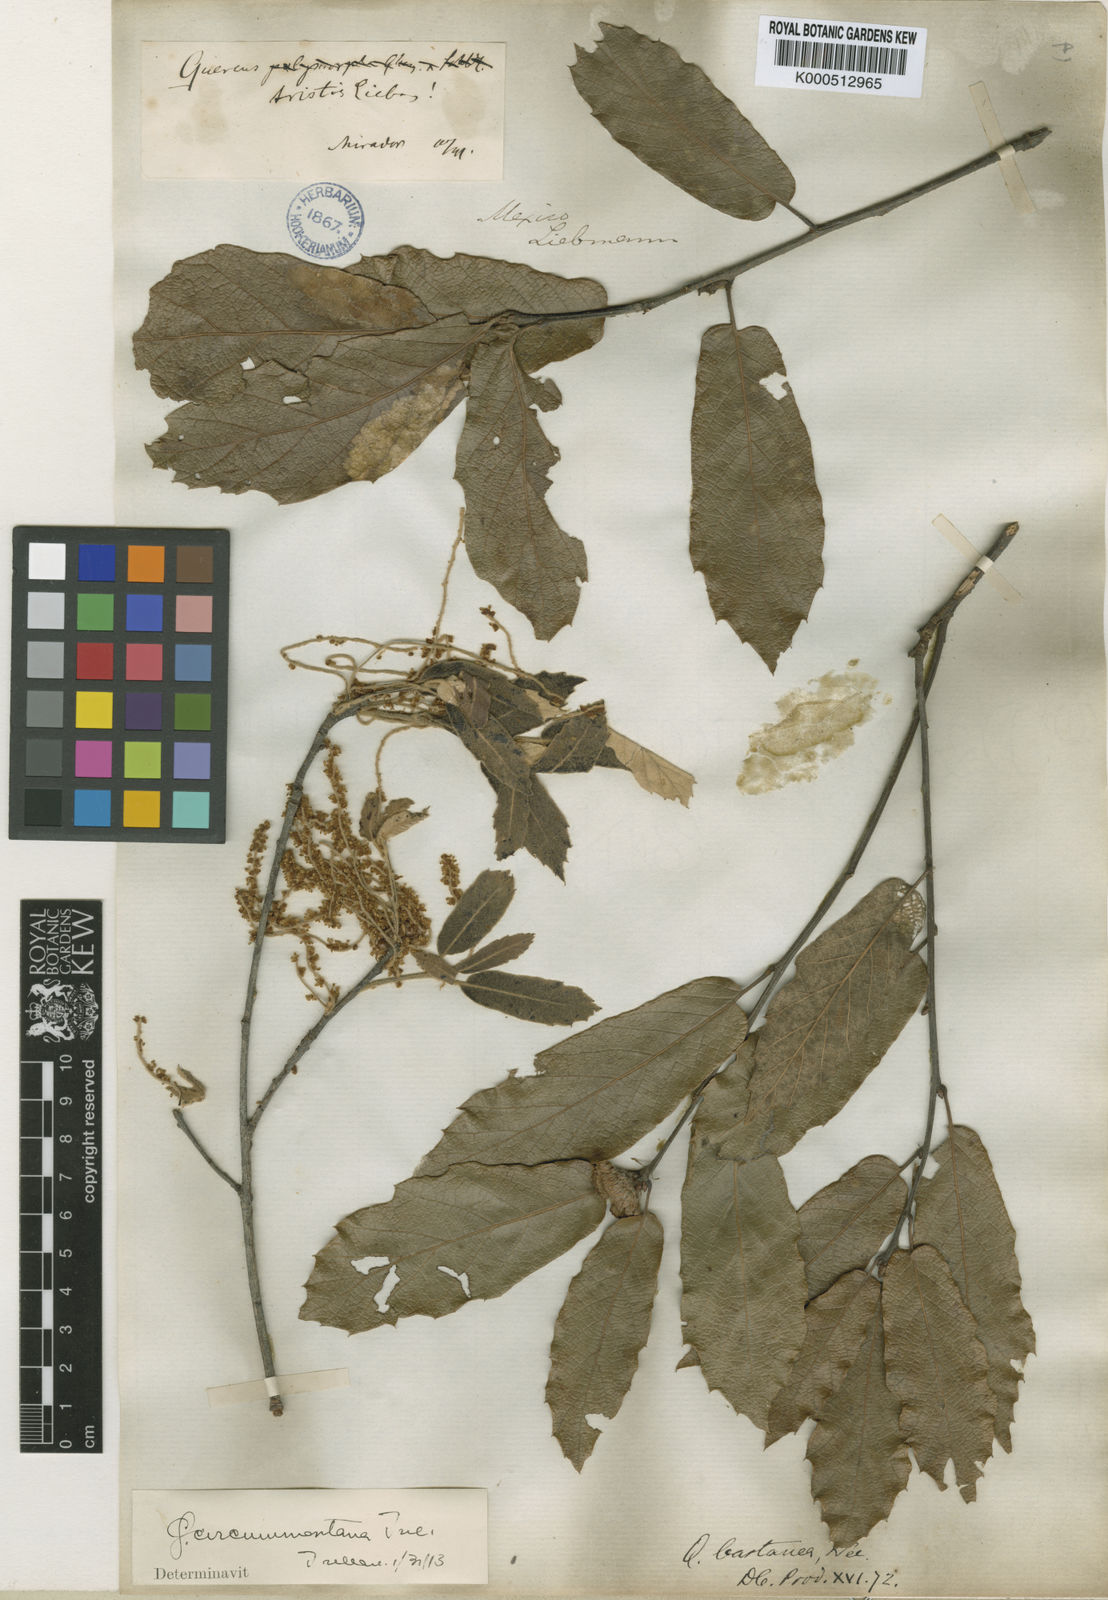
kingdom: Plantae
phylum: Tracheophyta
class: Magnoliopsida
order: Fagales
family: Fagaceae
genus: Quercus
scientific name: Quercus castanea
